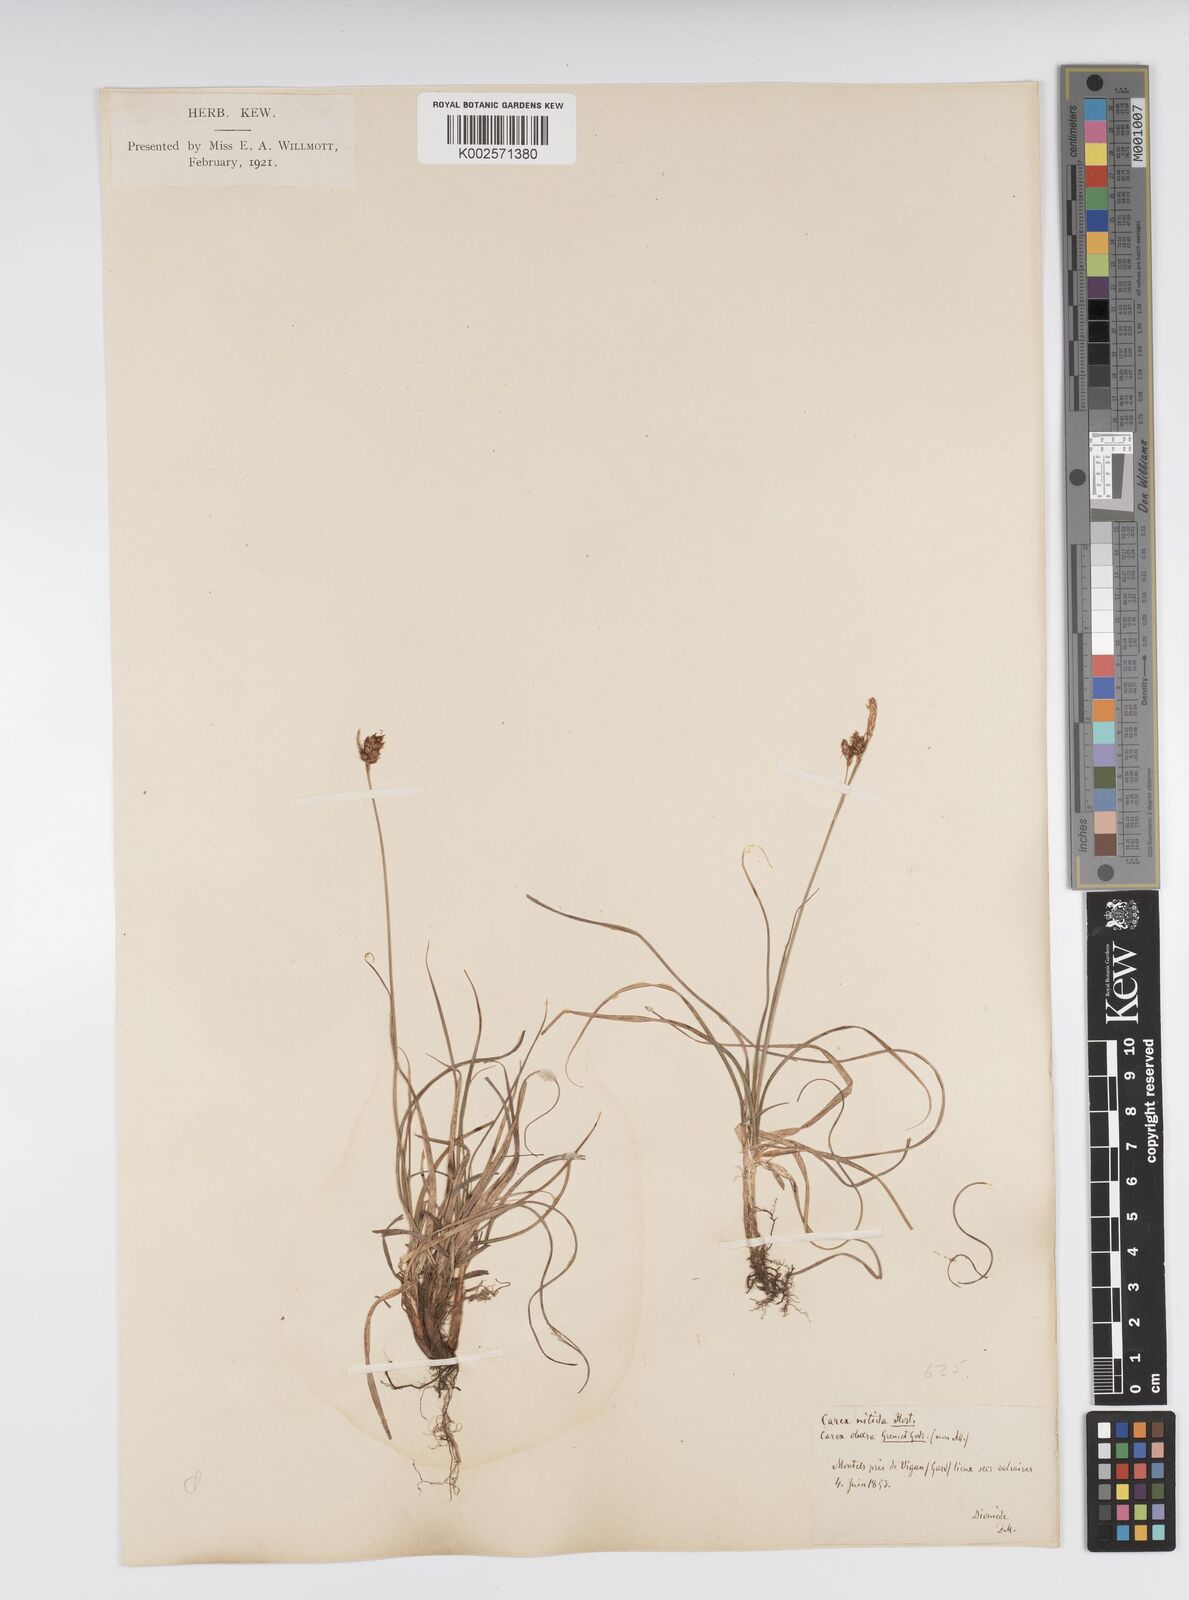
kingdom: Plantae
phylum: Tracheophyta
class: Liliopsida
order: Poales
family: Cyperaceae
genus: Carex
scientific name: Carex liparocarpos
